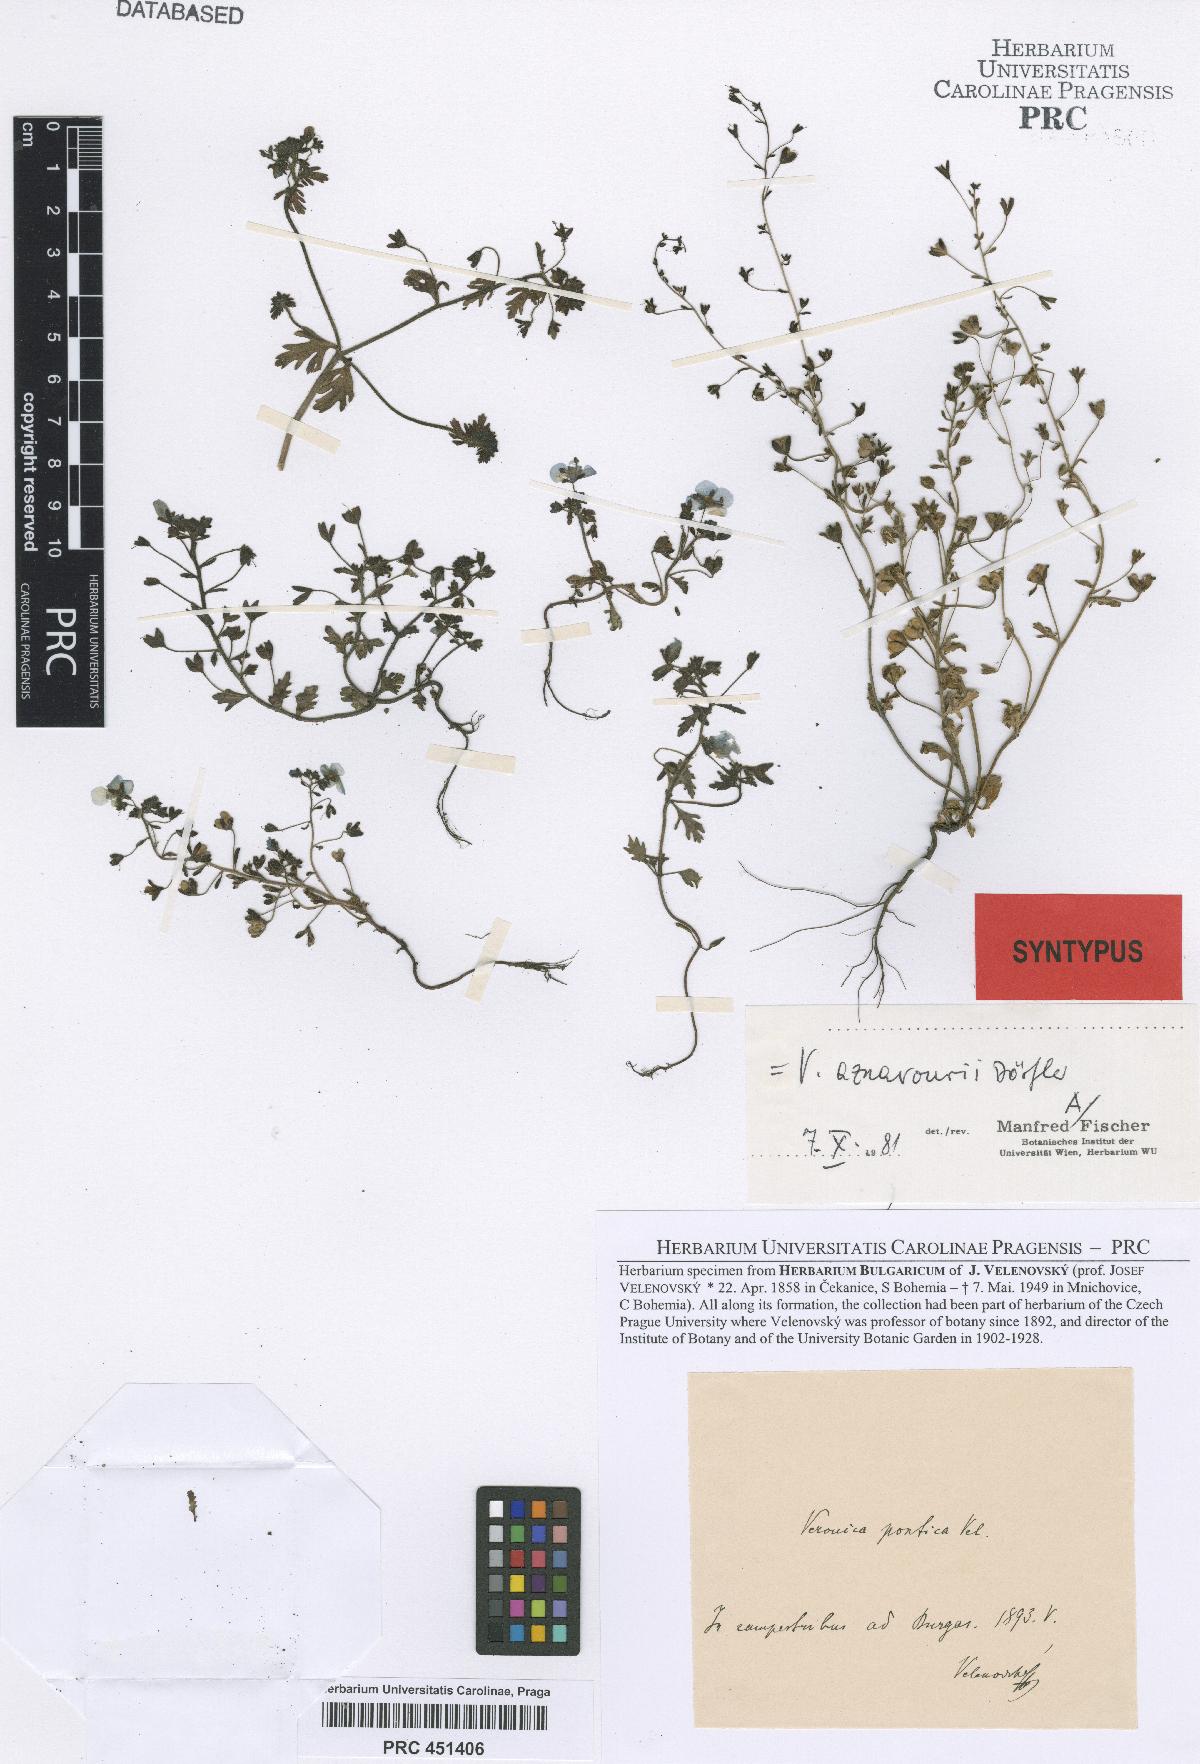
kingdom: Plantae
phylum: Tracheophyta
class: Magnoliopsida
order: Lamiales
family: Plantaginaceae
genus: Veronica
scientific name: Veronica aznavourii
